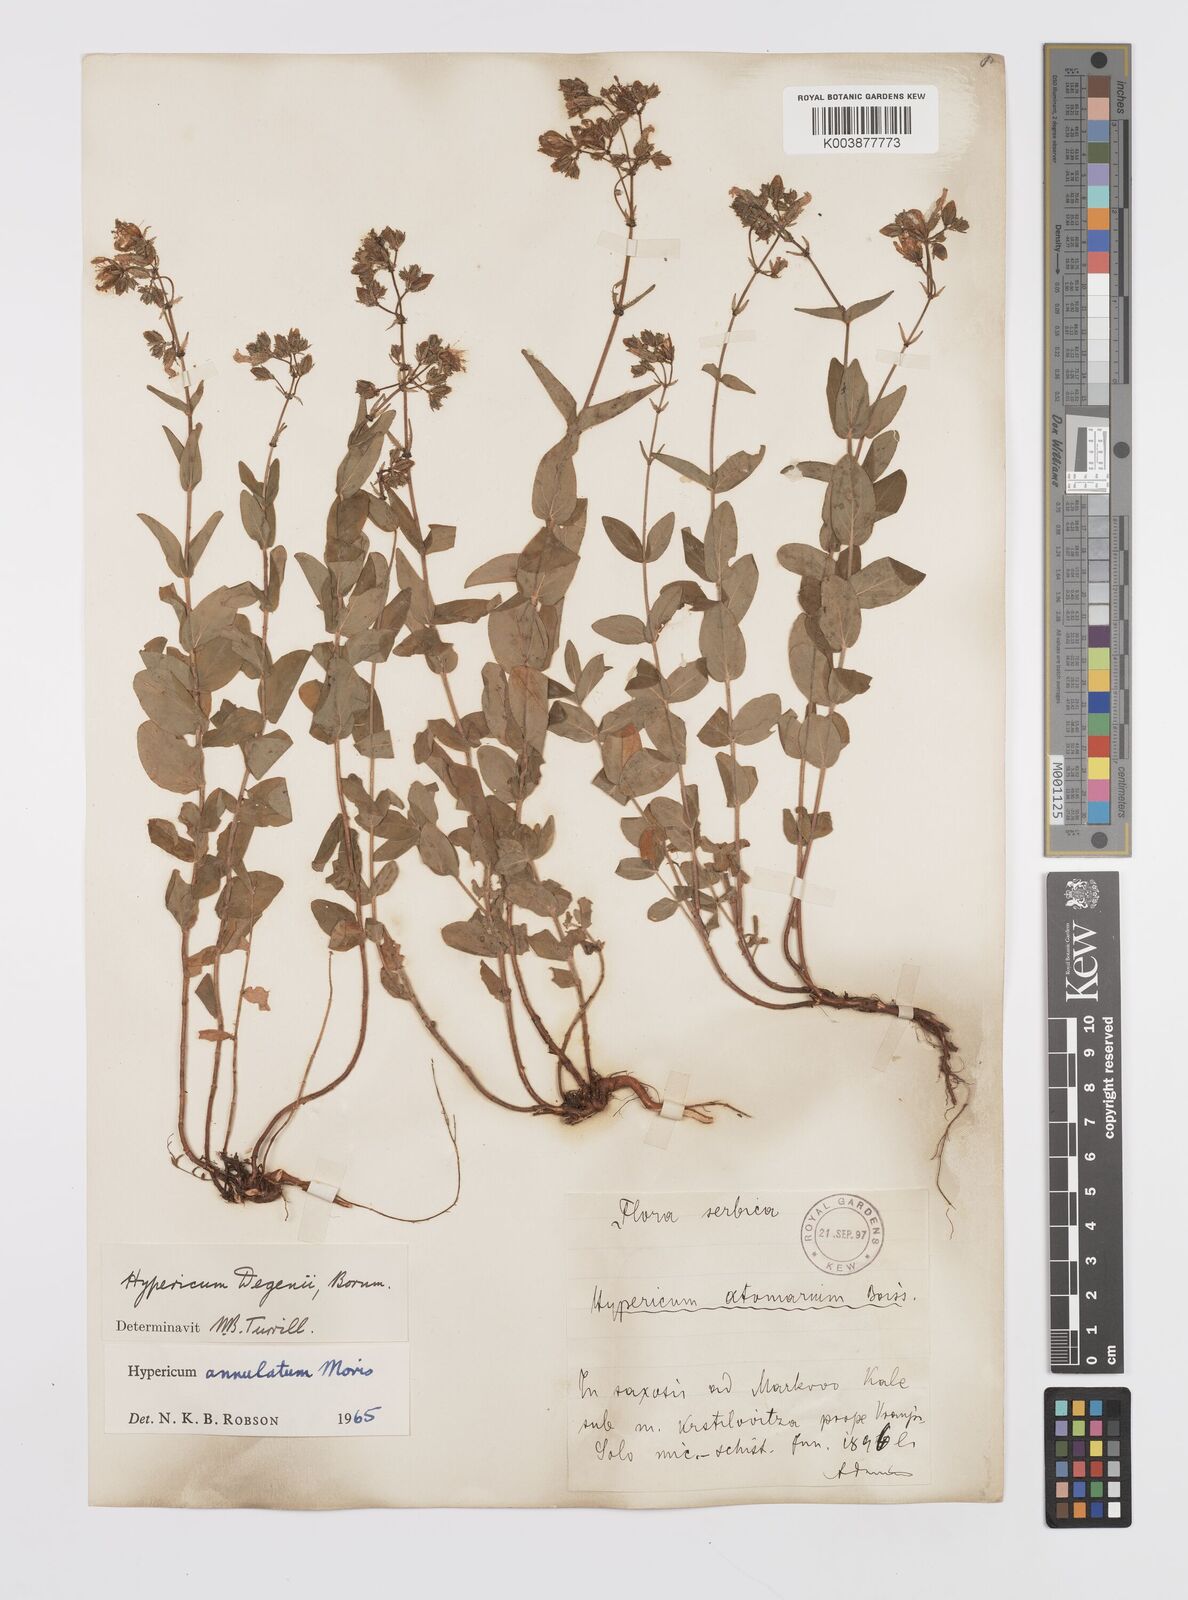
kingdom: Plantae
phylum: Tracheophyta
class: Magnoliopsida
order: Malpighiales
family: Hypericaceae
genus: Hypericum
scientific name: Hypericum annulatum
